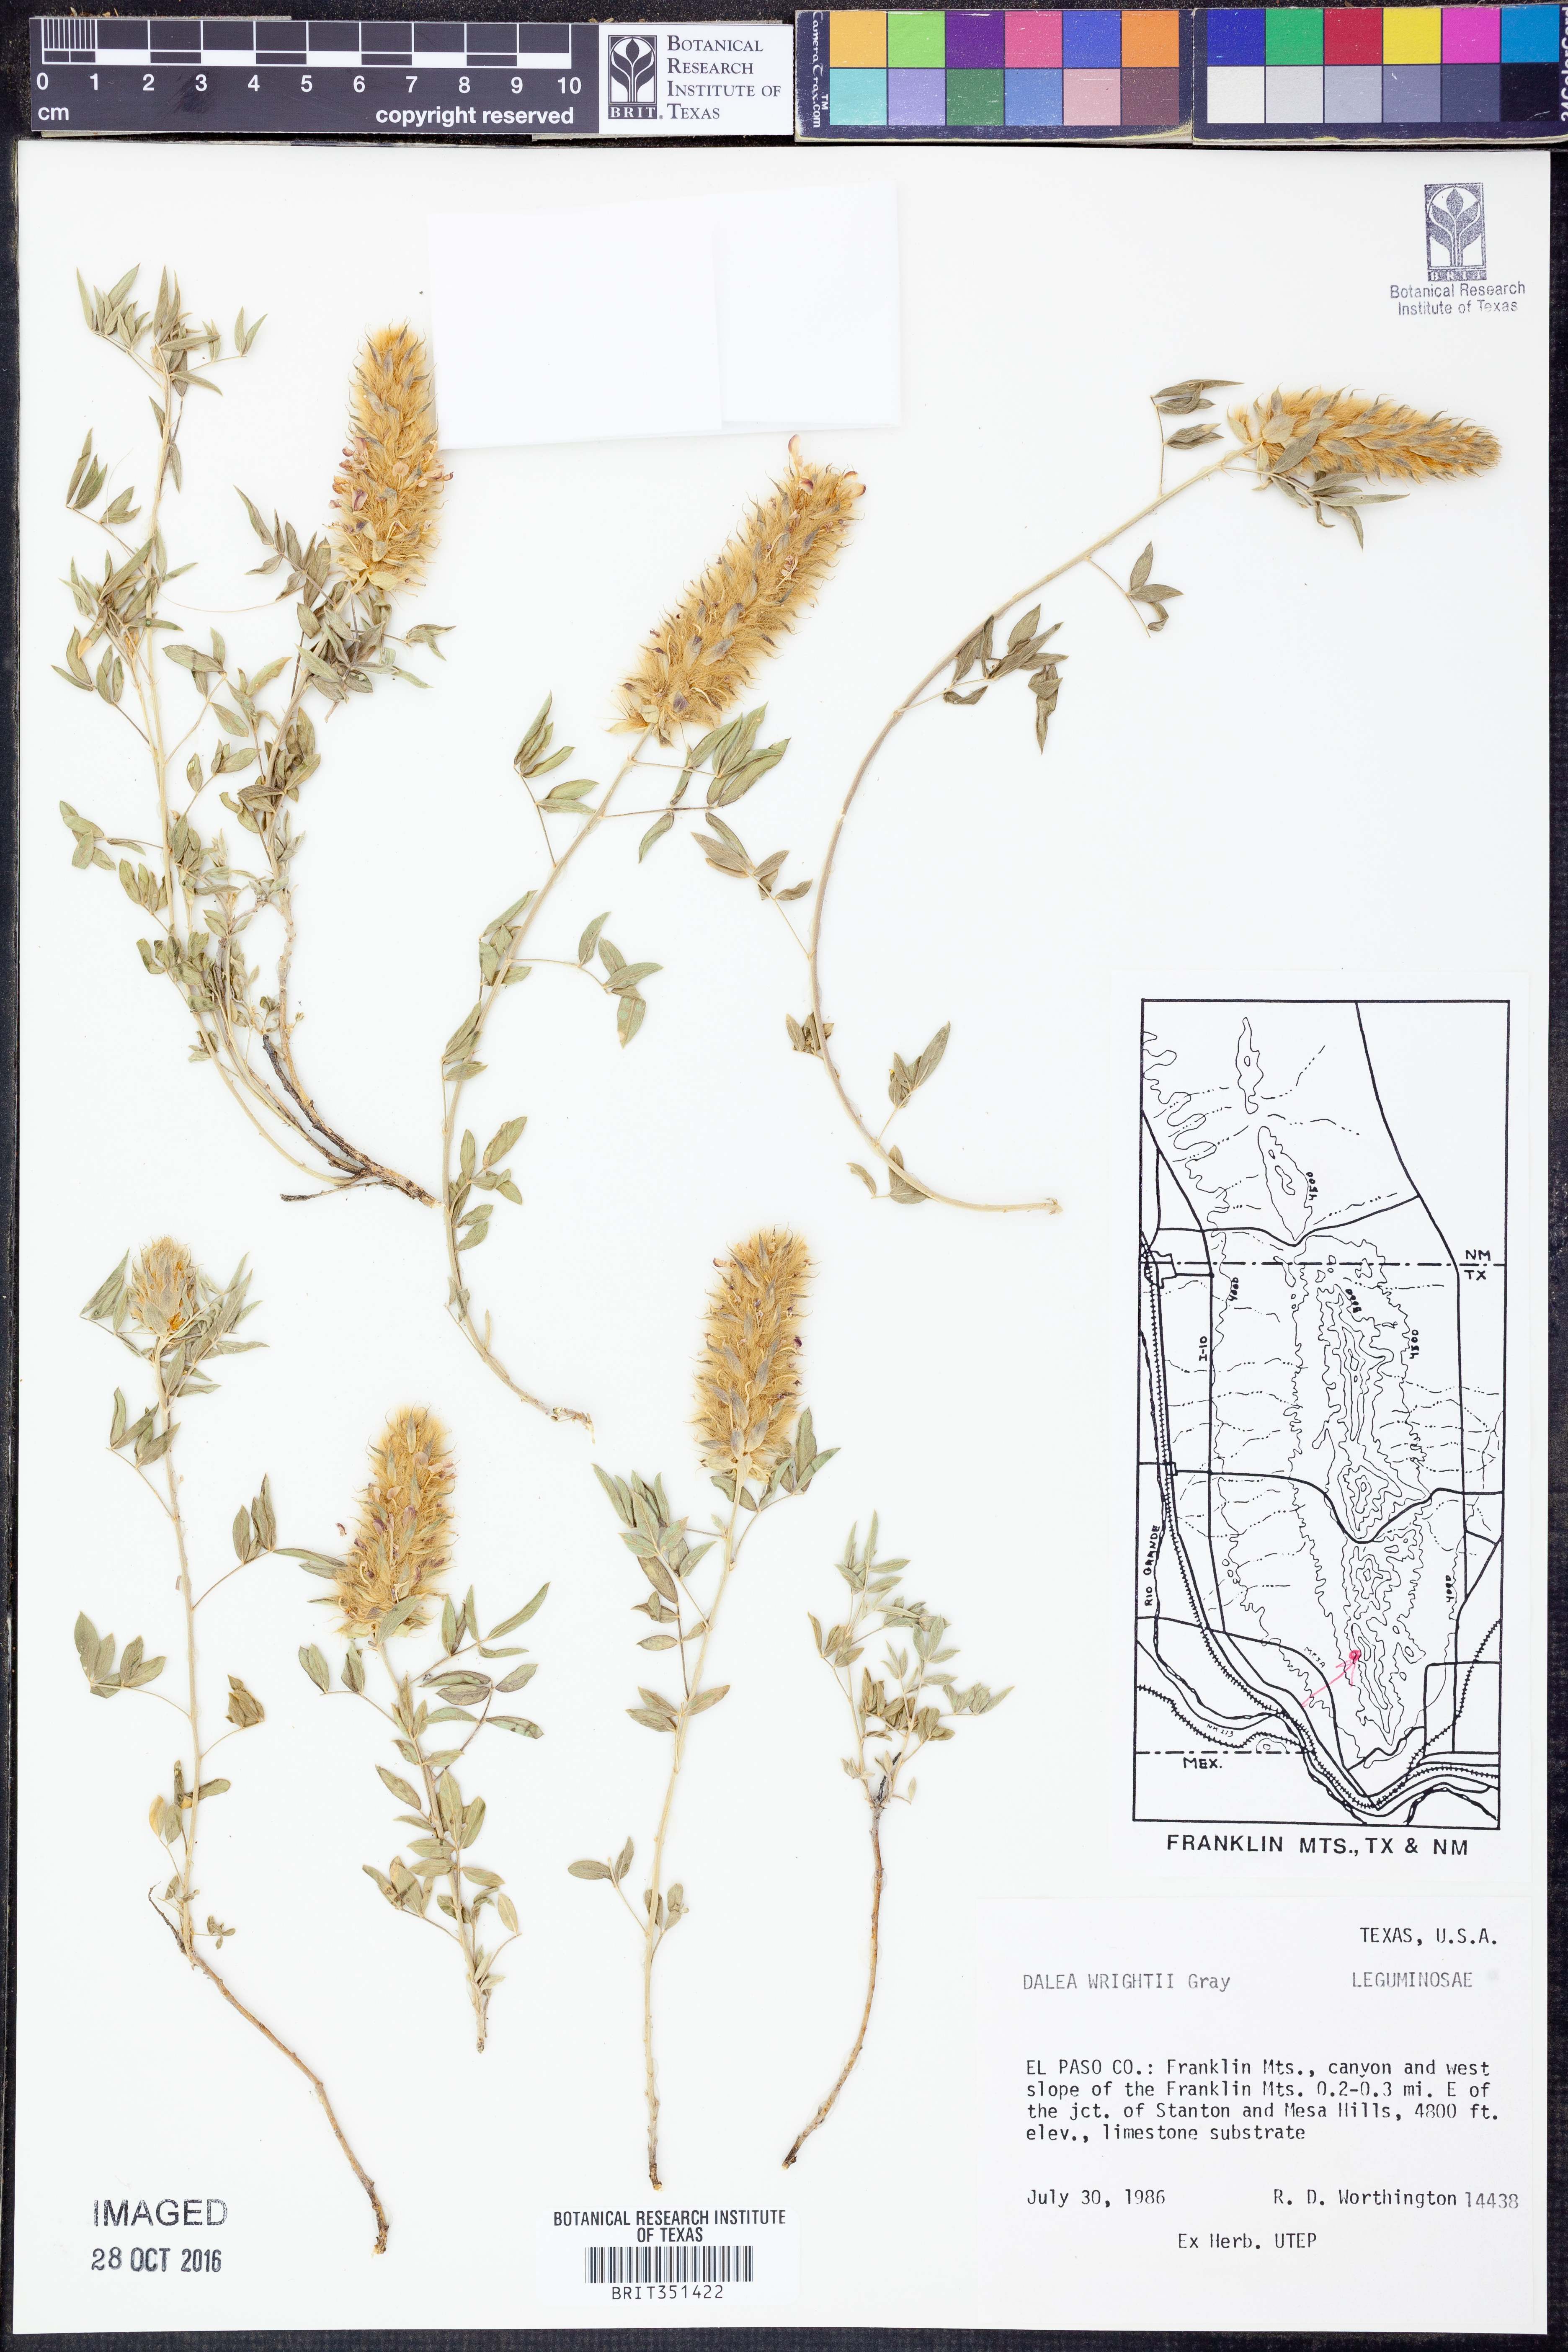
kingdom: Plantae
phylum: Tracheophyta
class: Magnoliopsida
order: Fabales
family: Fabaceae
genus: Dalea
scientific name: Dalea wrightii
